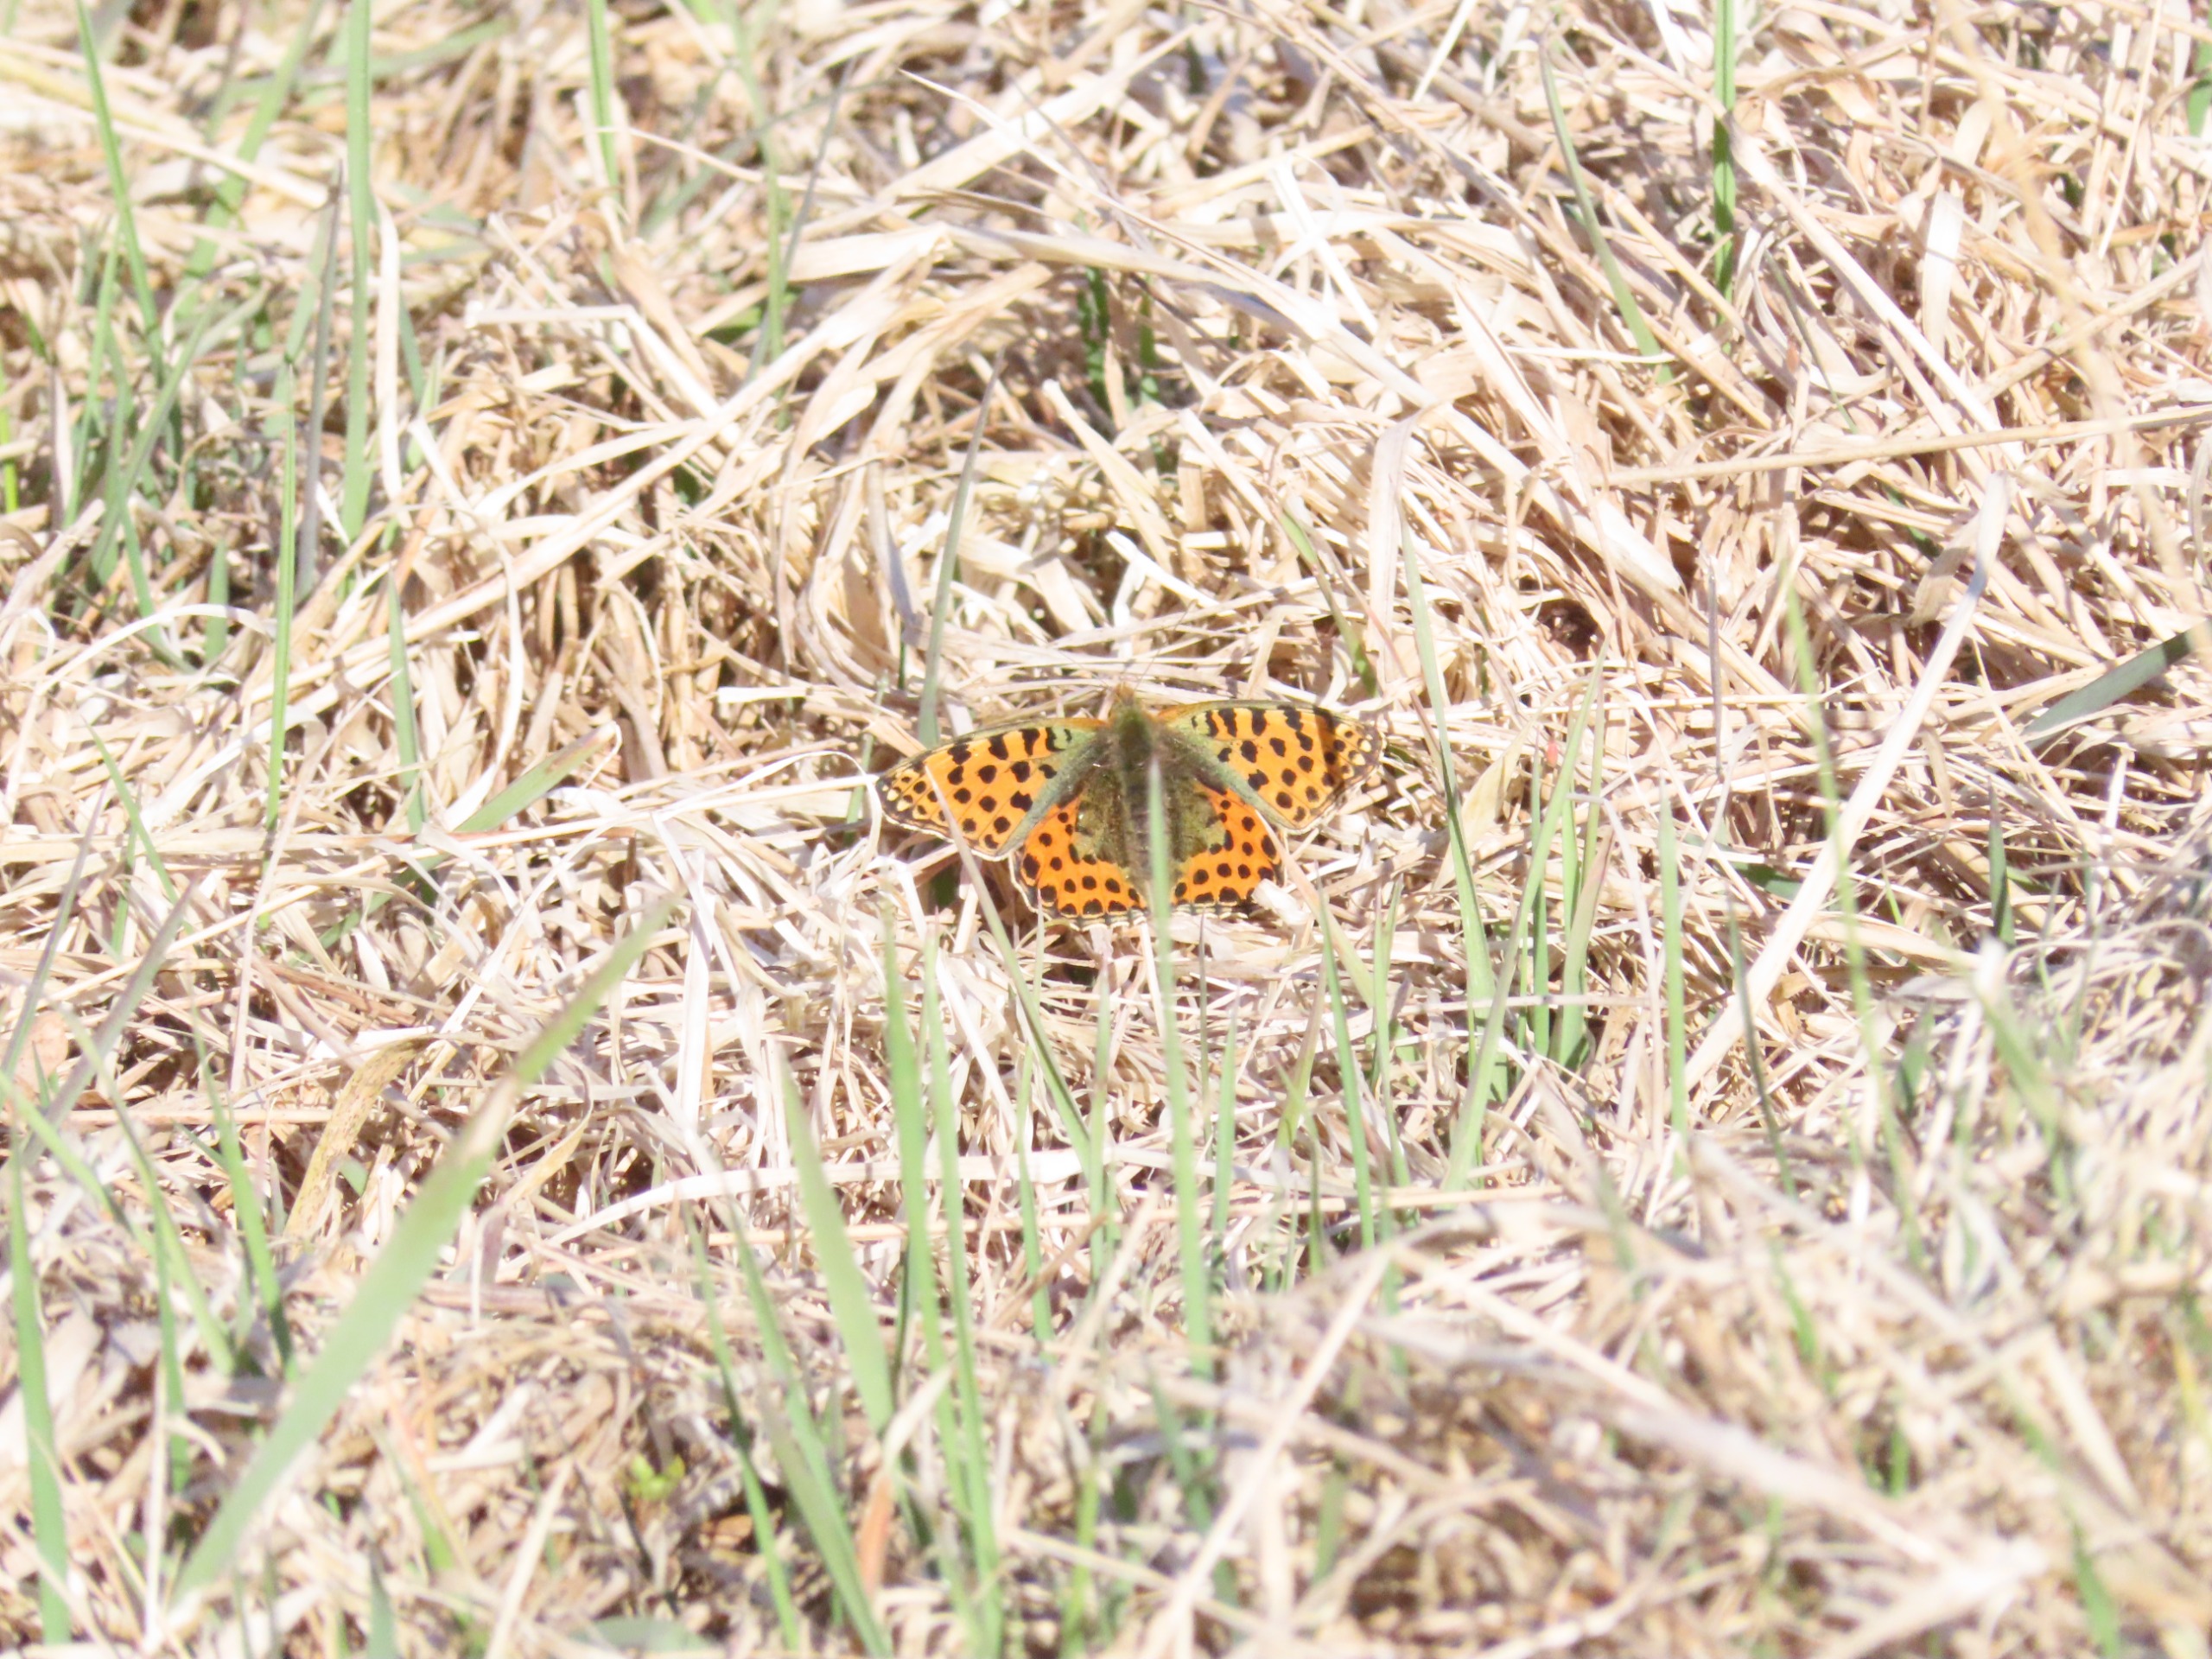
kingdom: Animalia
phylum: Arthropoda
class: Insecta
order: Lepidoptera
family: Nymphalidae
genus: Issoria
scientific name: Issoria lathonia
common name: Storplettet perlemorsommerfugl
